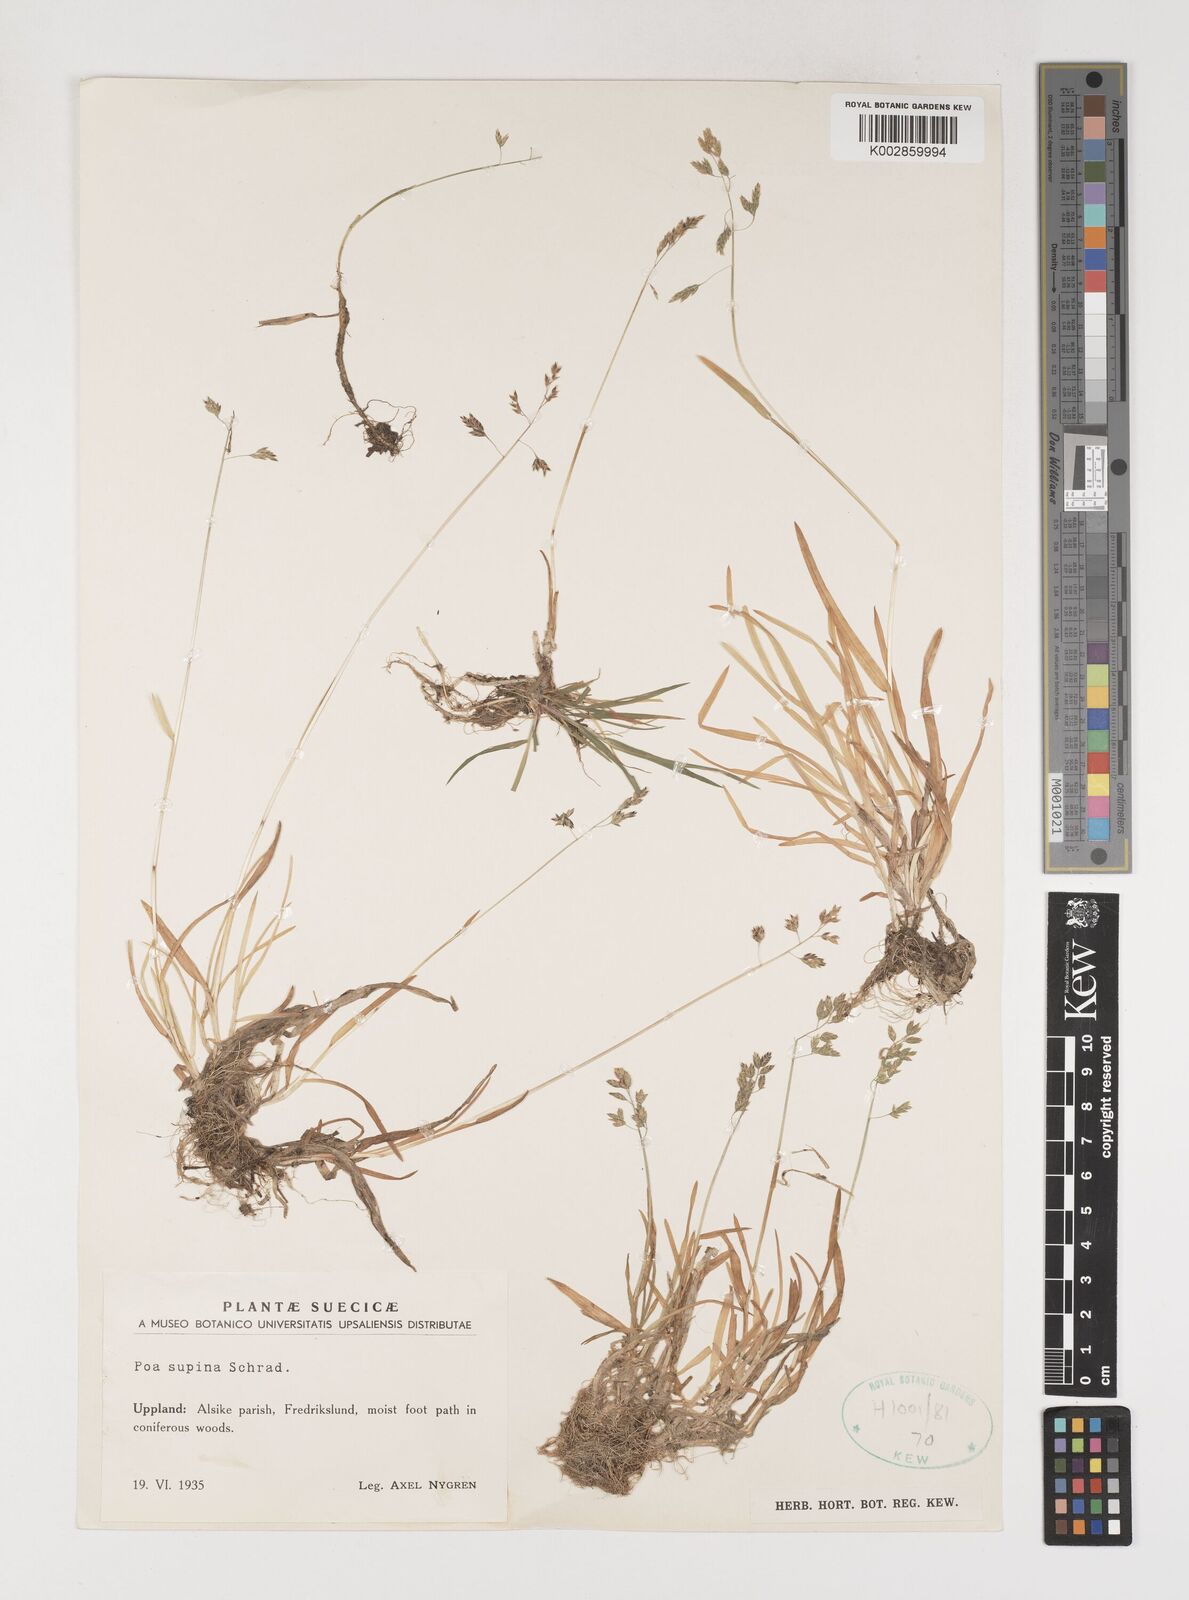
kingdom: Plantae
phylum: Tracheophyta
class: Liliopsida
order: Poales
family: Poaceae
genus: Poa
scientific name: Poa supina
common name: Supina bluegrass
